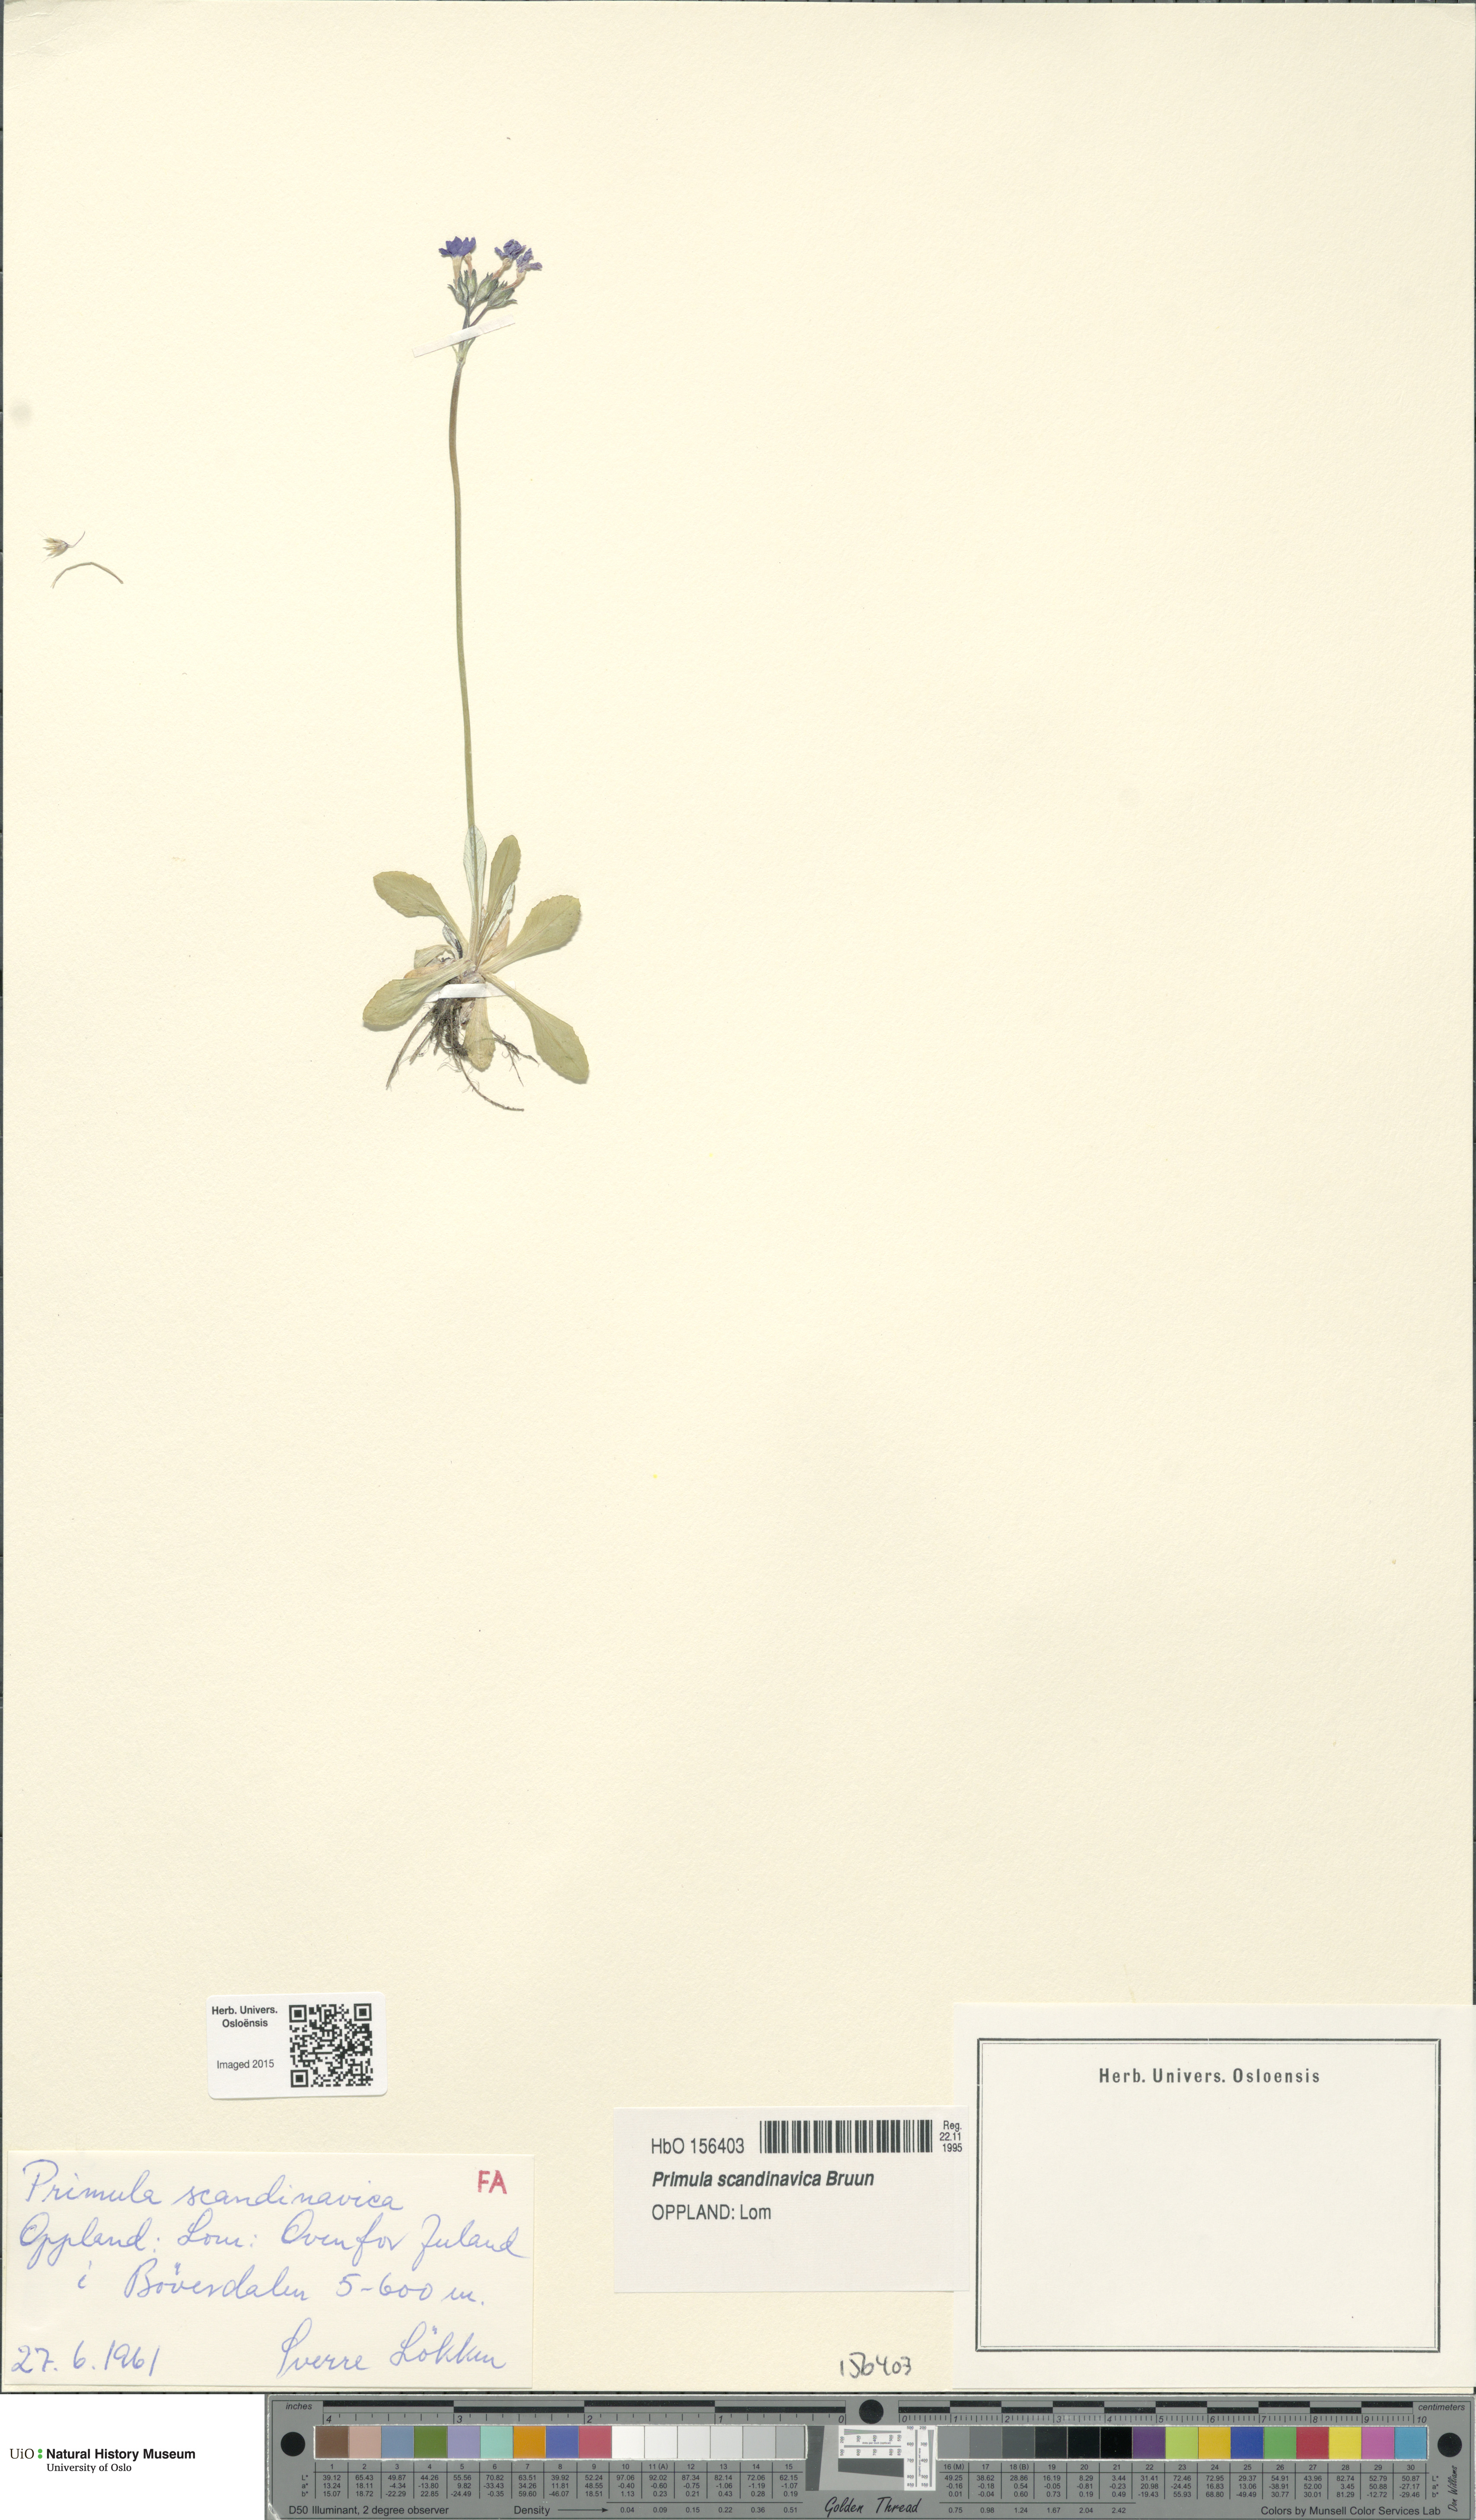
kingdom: Plantae
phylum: Tracheophyta
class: Magnoliopsida
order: Ericales
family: Primulaceae
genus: Primula
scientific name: Primula scandinavica
